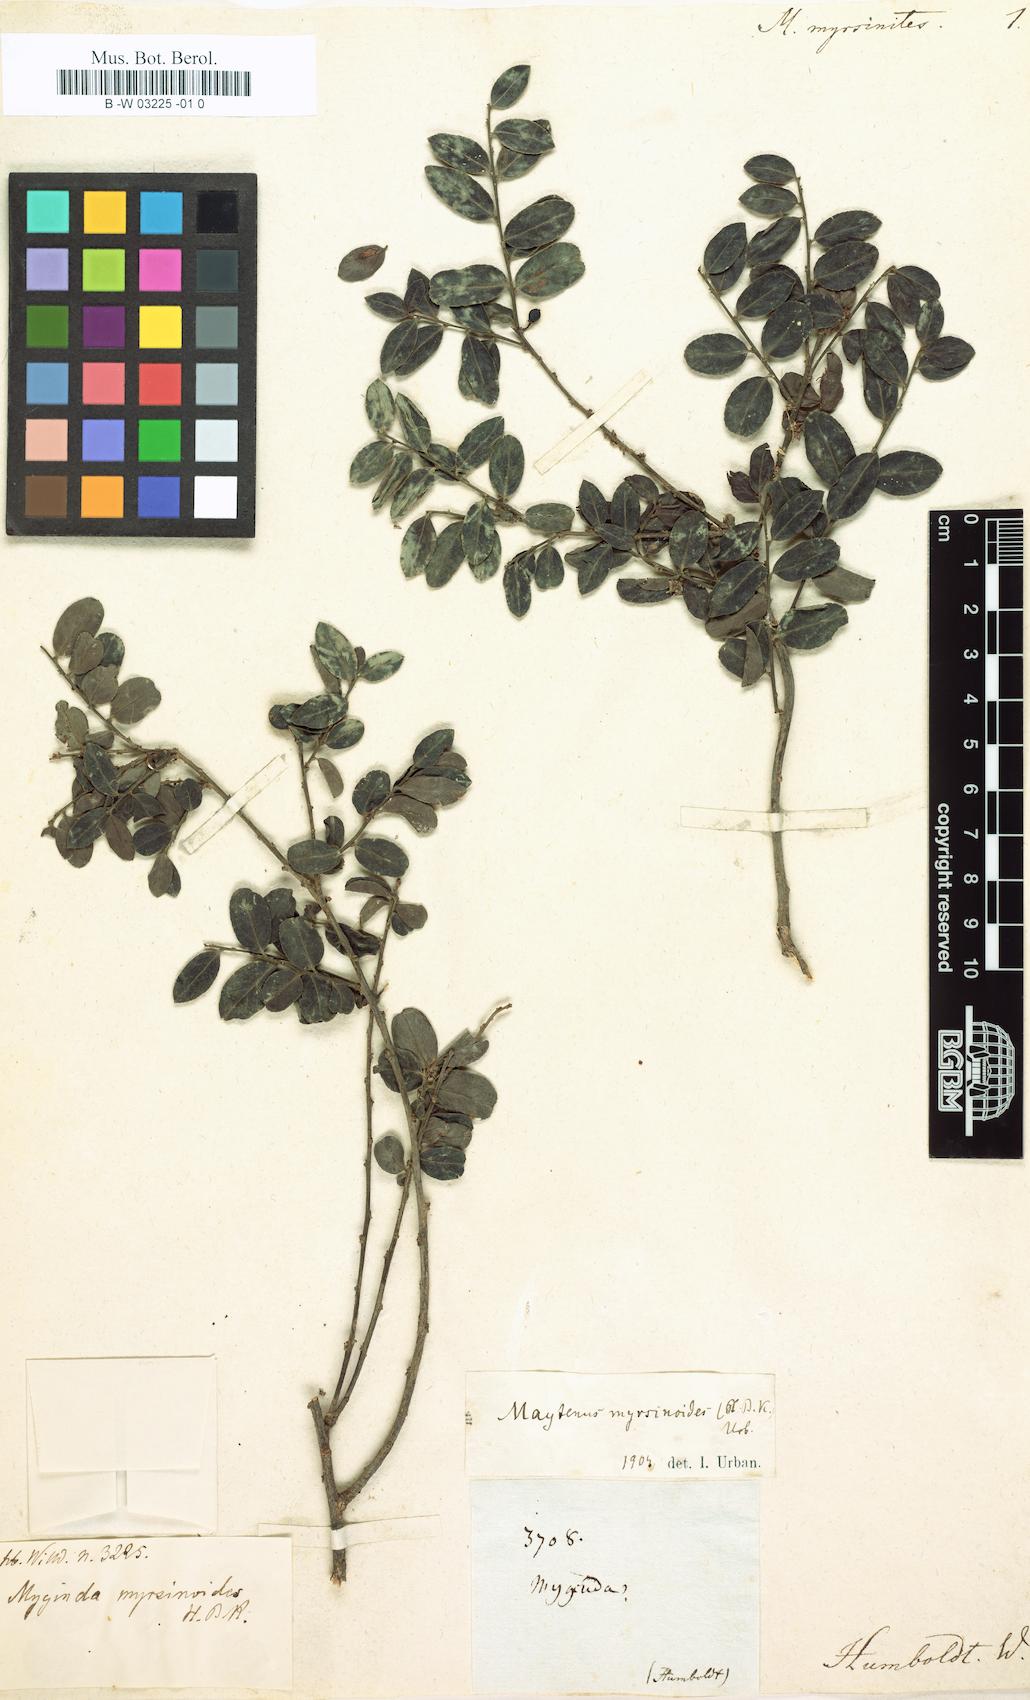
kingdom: Plantae
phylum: Tracheophyta
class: Magnoliopsida
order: Celastrales
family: Celastraceae
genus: Maytenus
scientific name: Maytenus vexata
